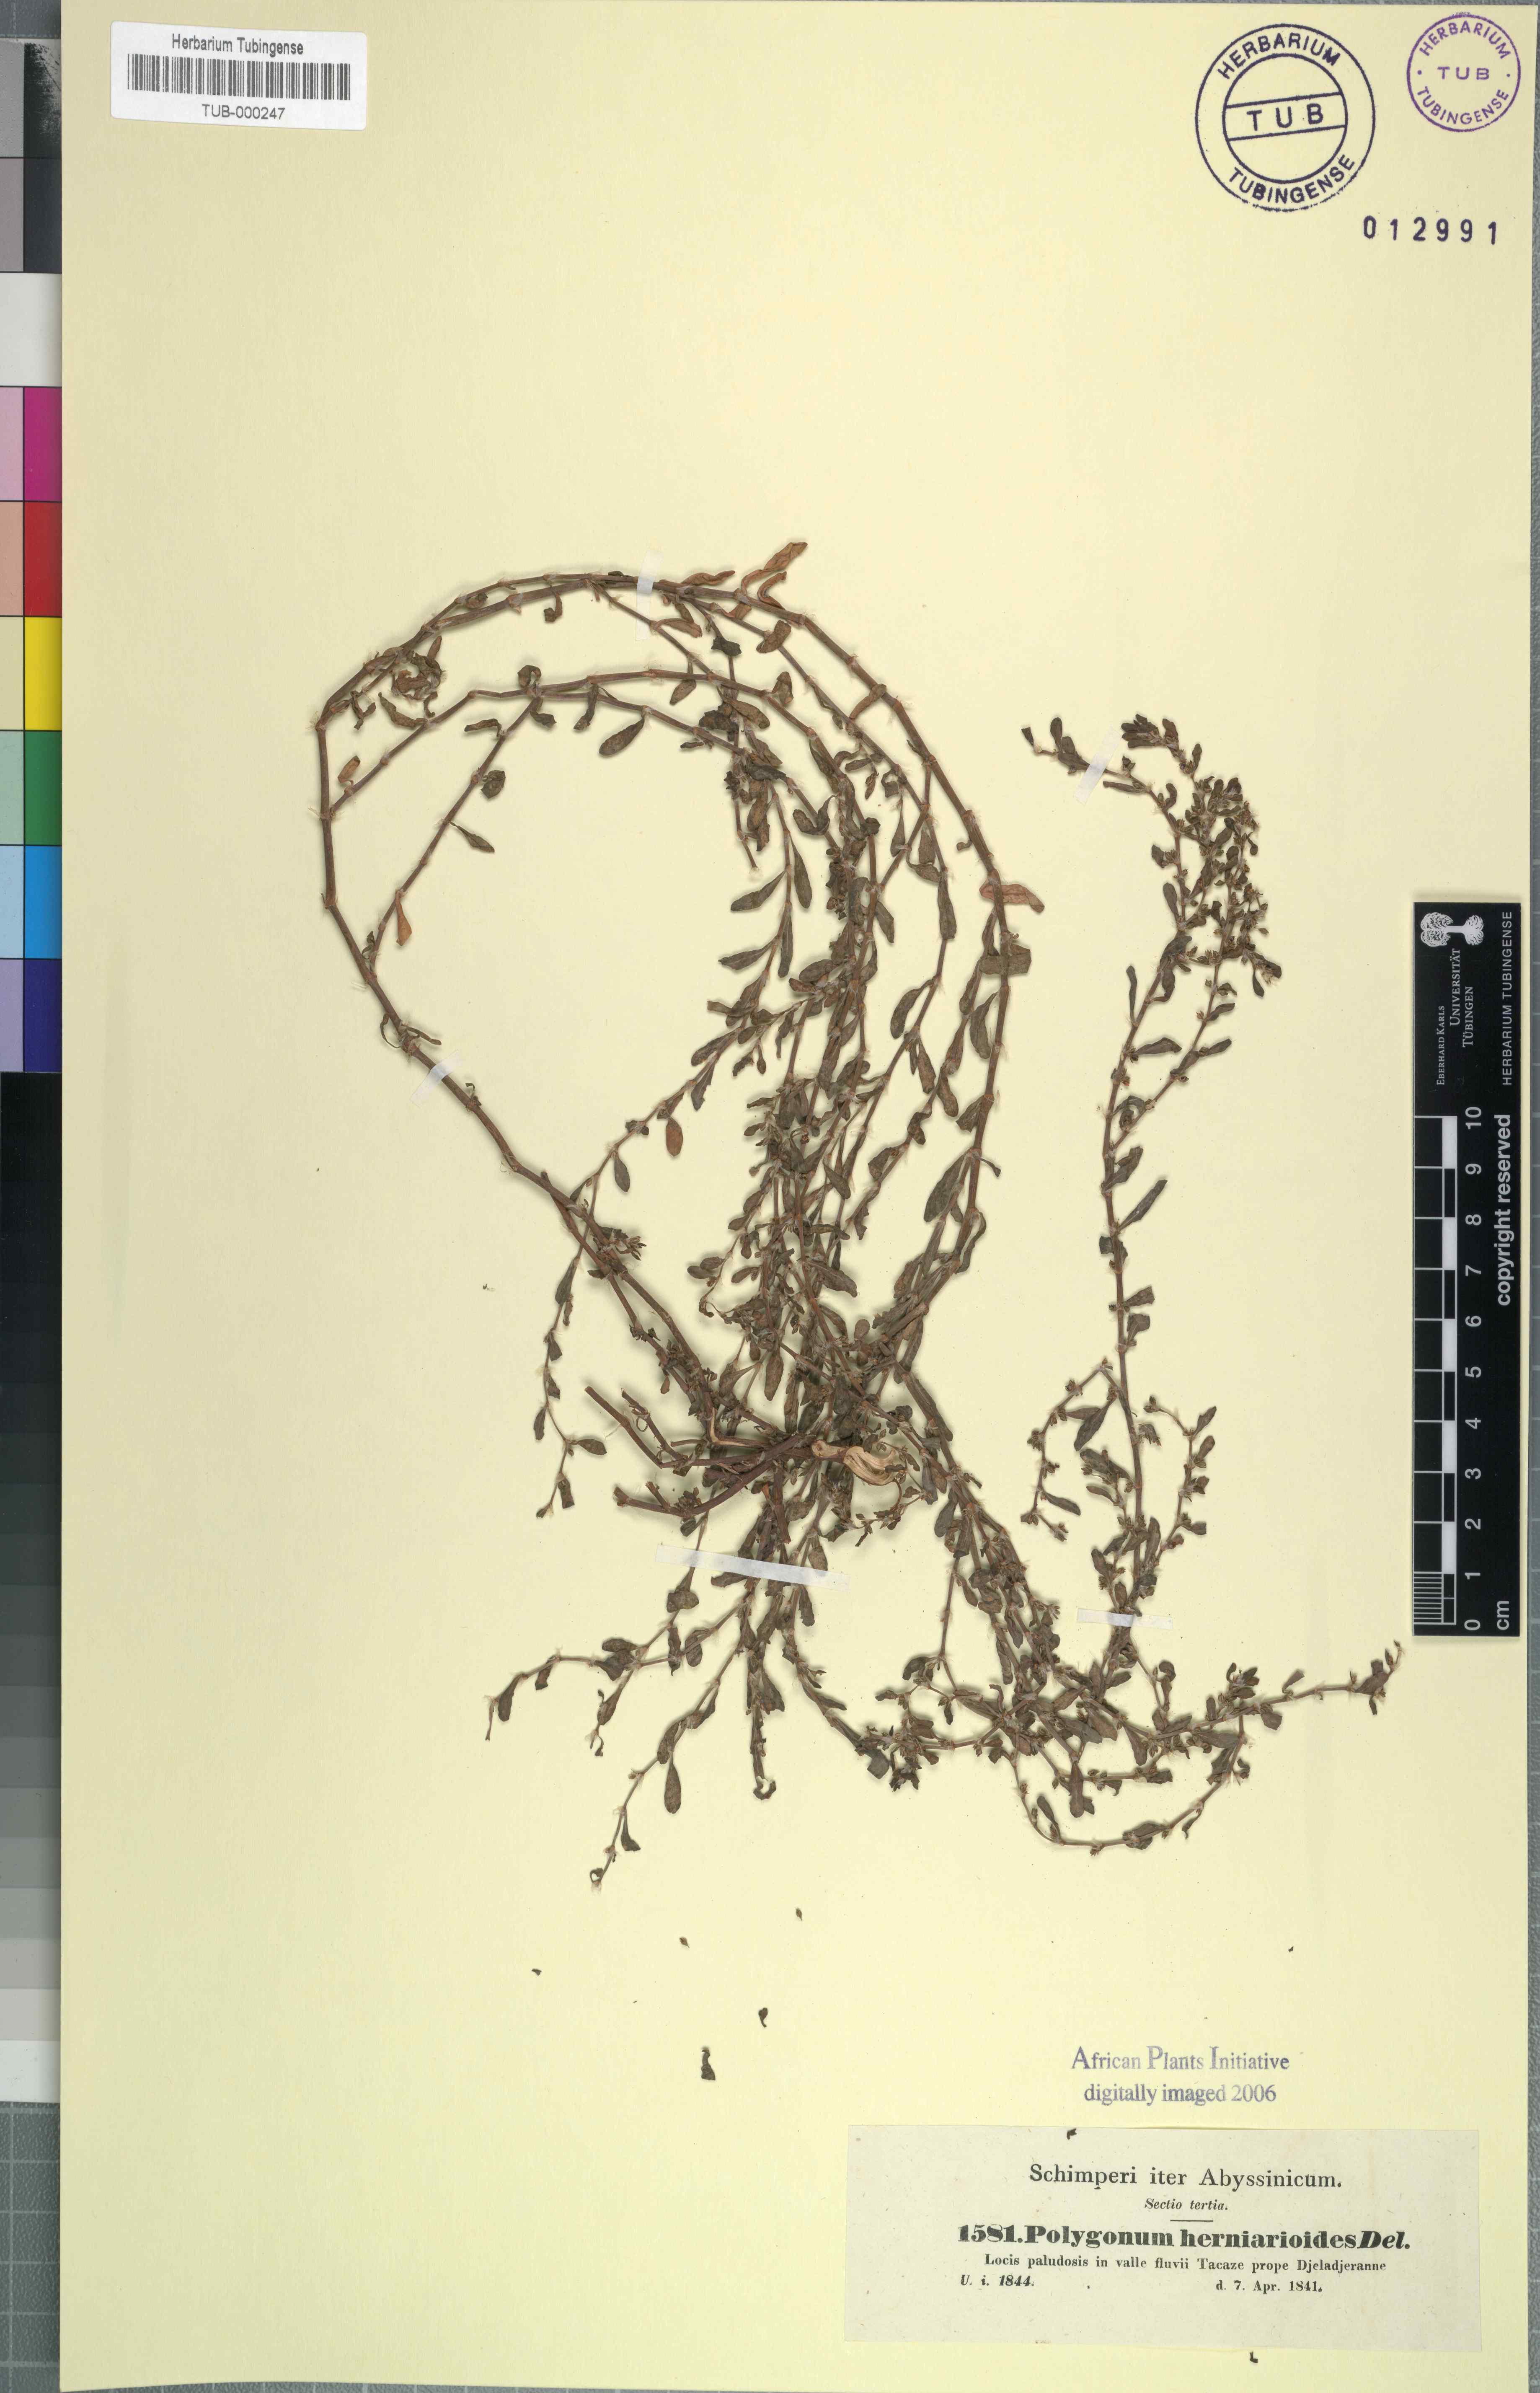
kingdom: Plantae
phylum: Tracheophyta
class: Magnoliopsida
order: Caryophyllales
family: Polygonaceae
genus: Polygonum
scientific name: Polygonum plebeium
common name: Common knotweed
